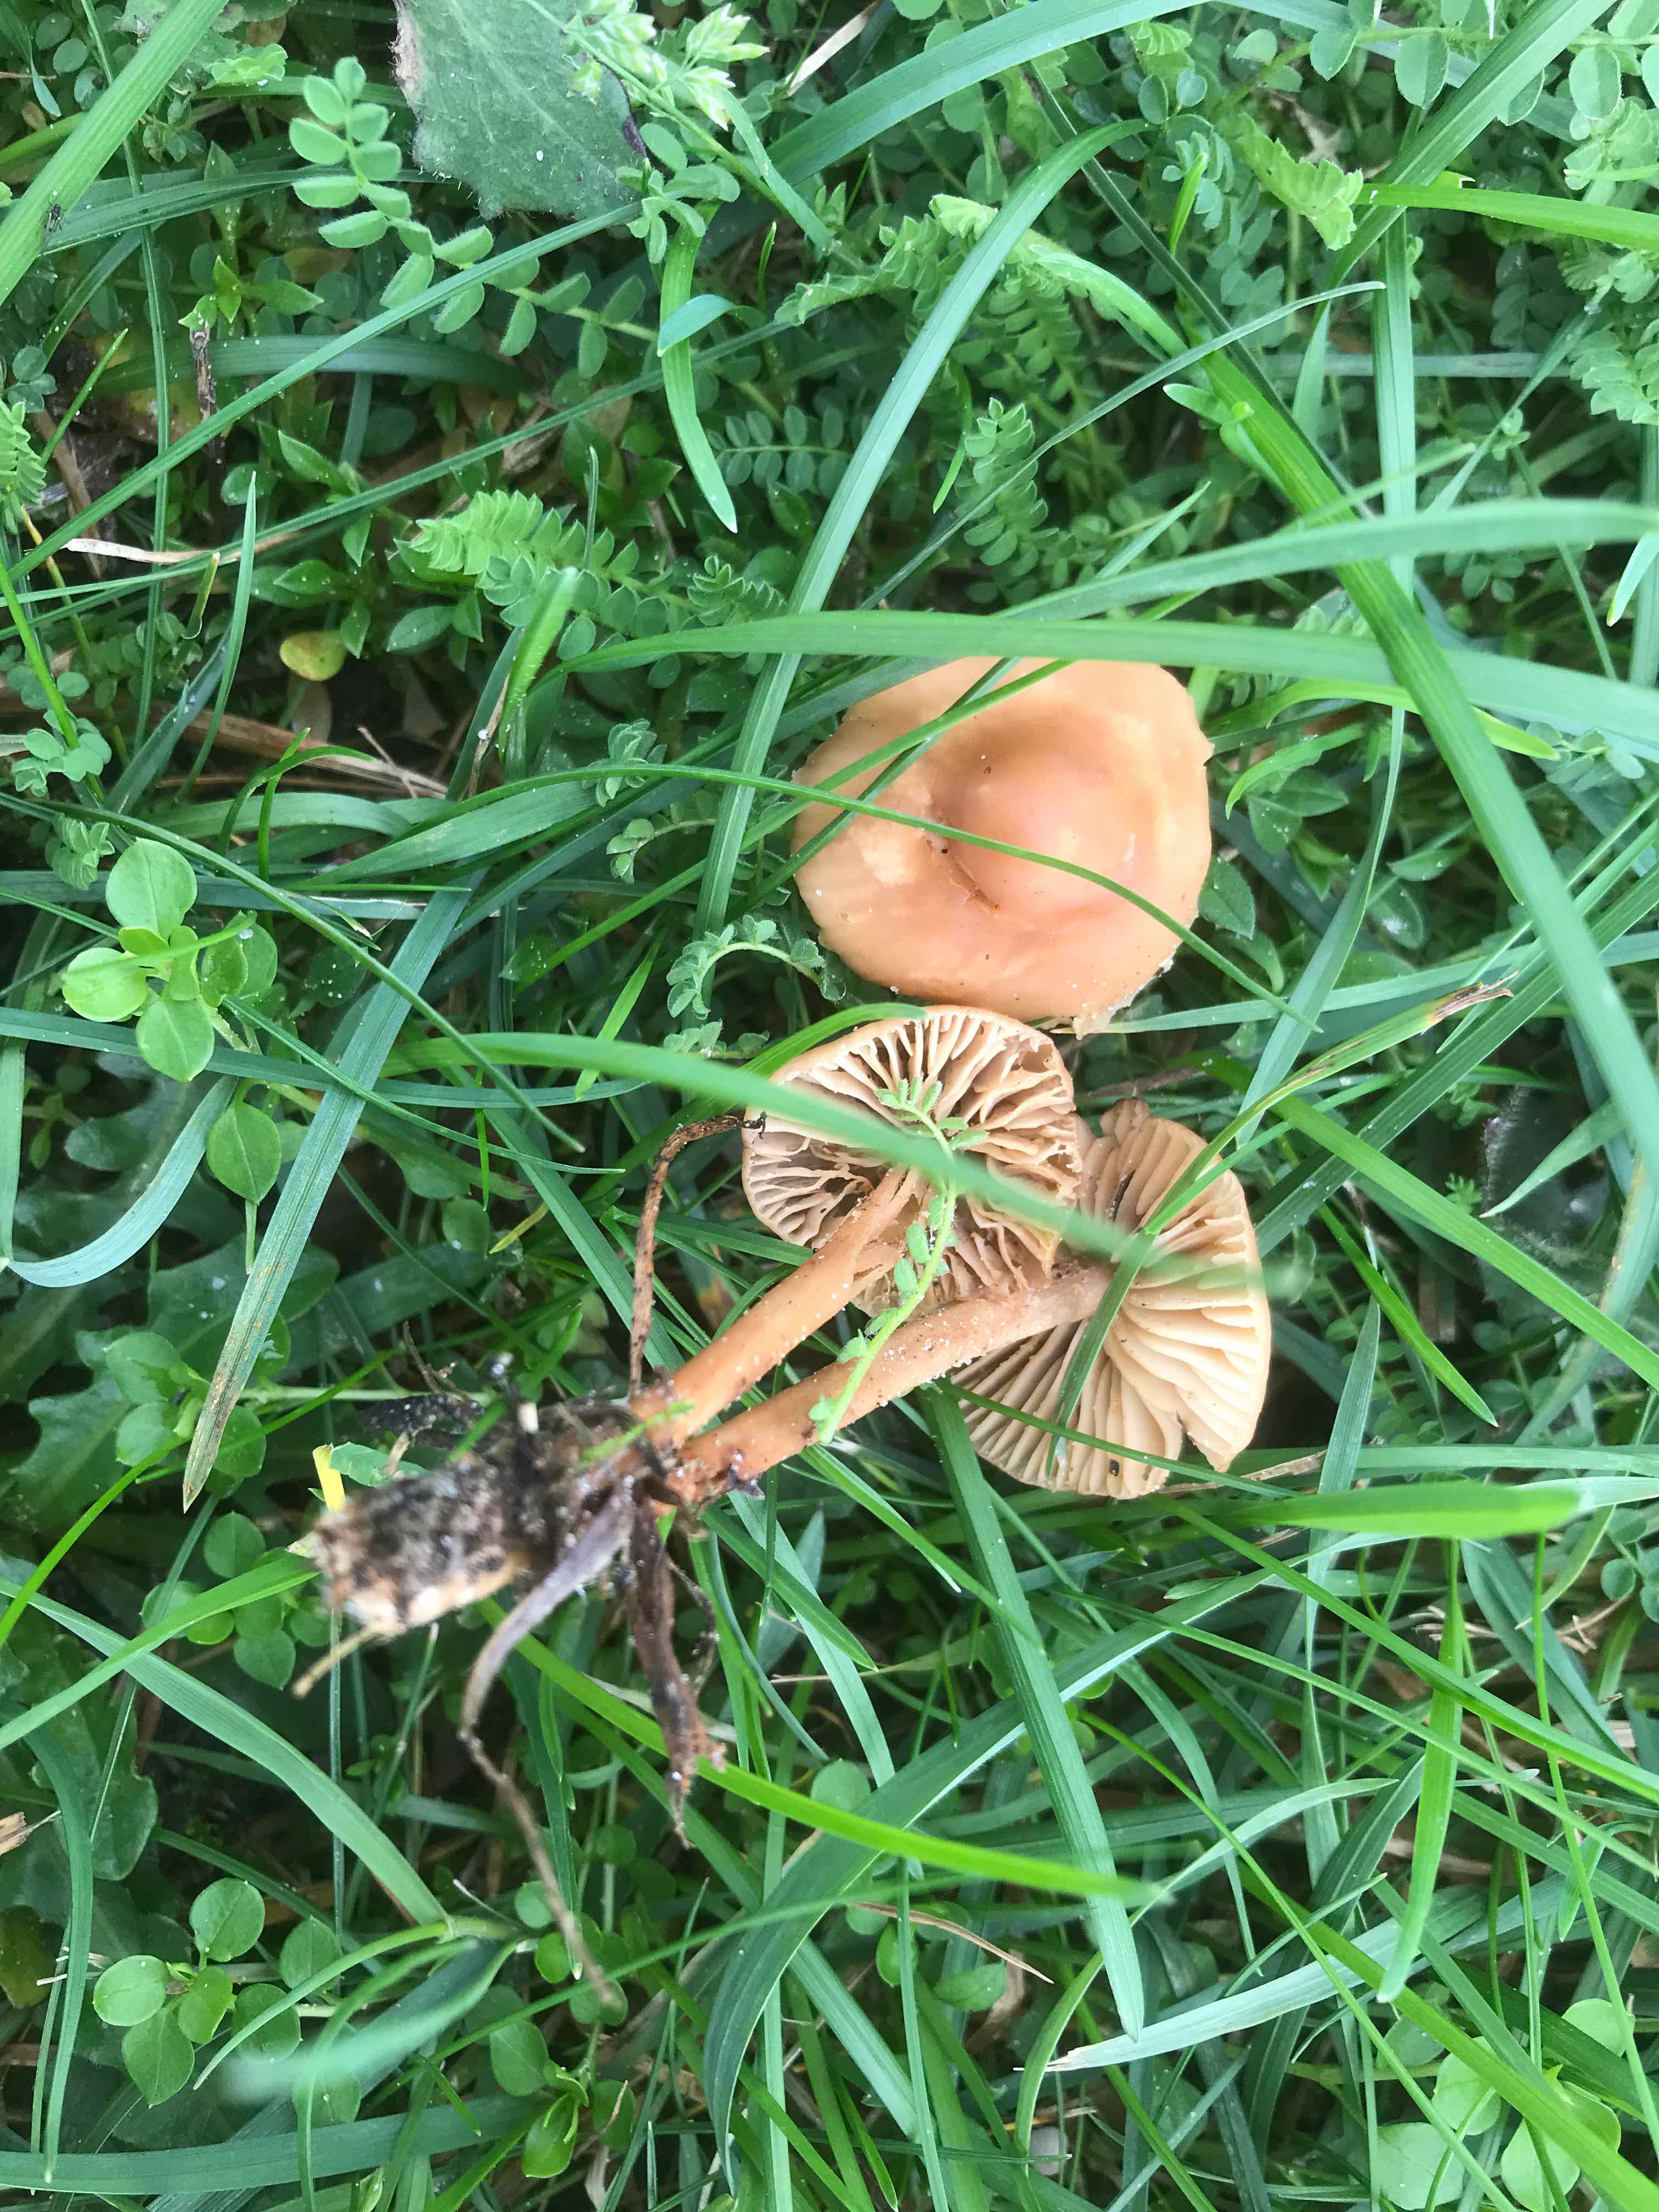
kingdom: Fungi
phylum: Basidiomycota
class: Agaricomycetes
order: Agaricales
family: Marasmiaceae
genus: Marasmius
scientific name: Marasmius oreades
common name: elledans-bruskhat
